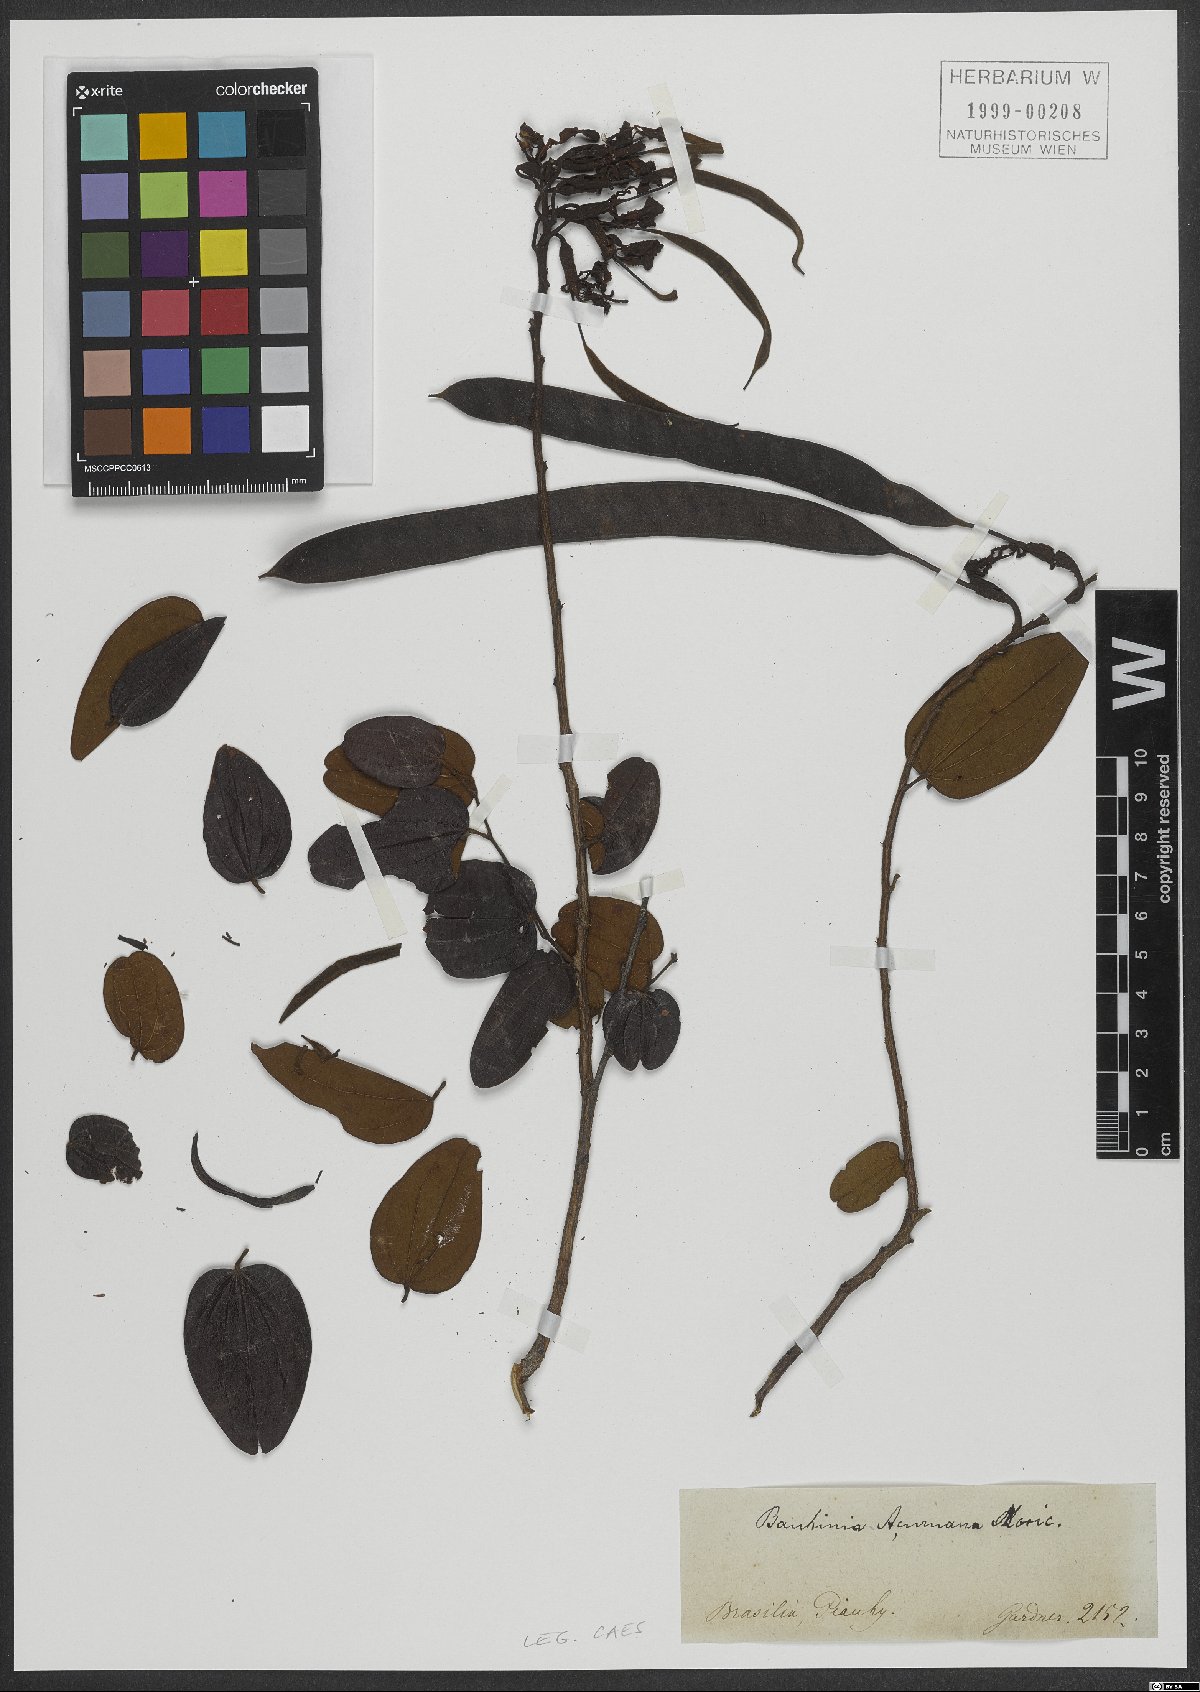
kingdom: Plantae
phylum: Tracheophyta
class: Magnoliopsida
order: Fabales
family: Fabaceae
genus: Bauhinia
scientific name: Bauhinia acuruana
